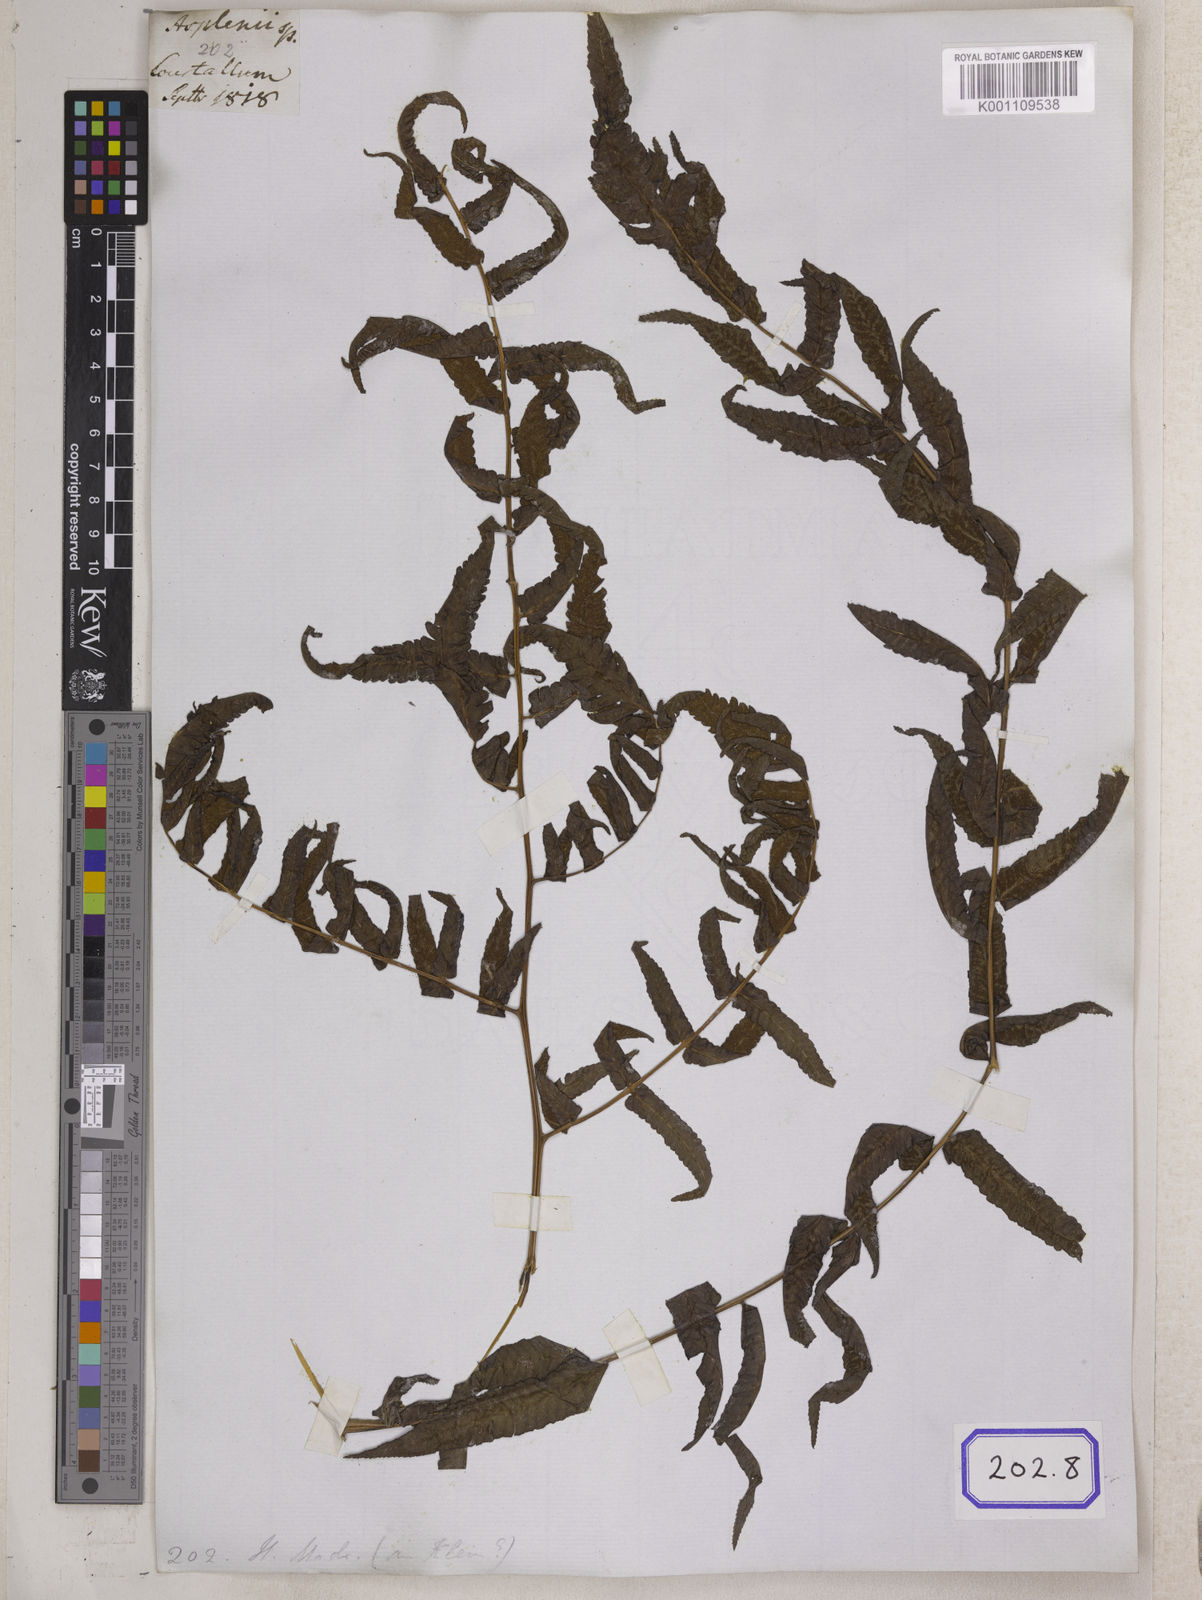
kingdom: Plantae
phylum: Tracheophyta
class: Polypodiopsida
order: Polypodiales
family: Aspleniaceae
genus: Asplenium
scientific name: Asplenium
